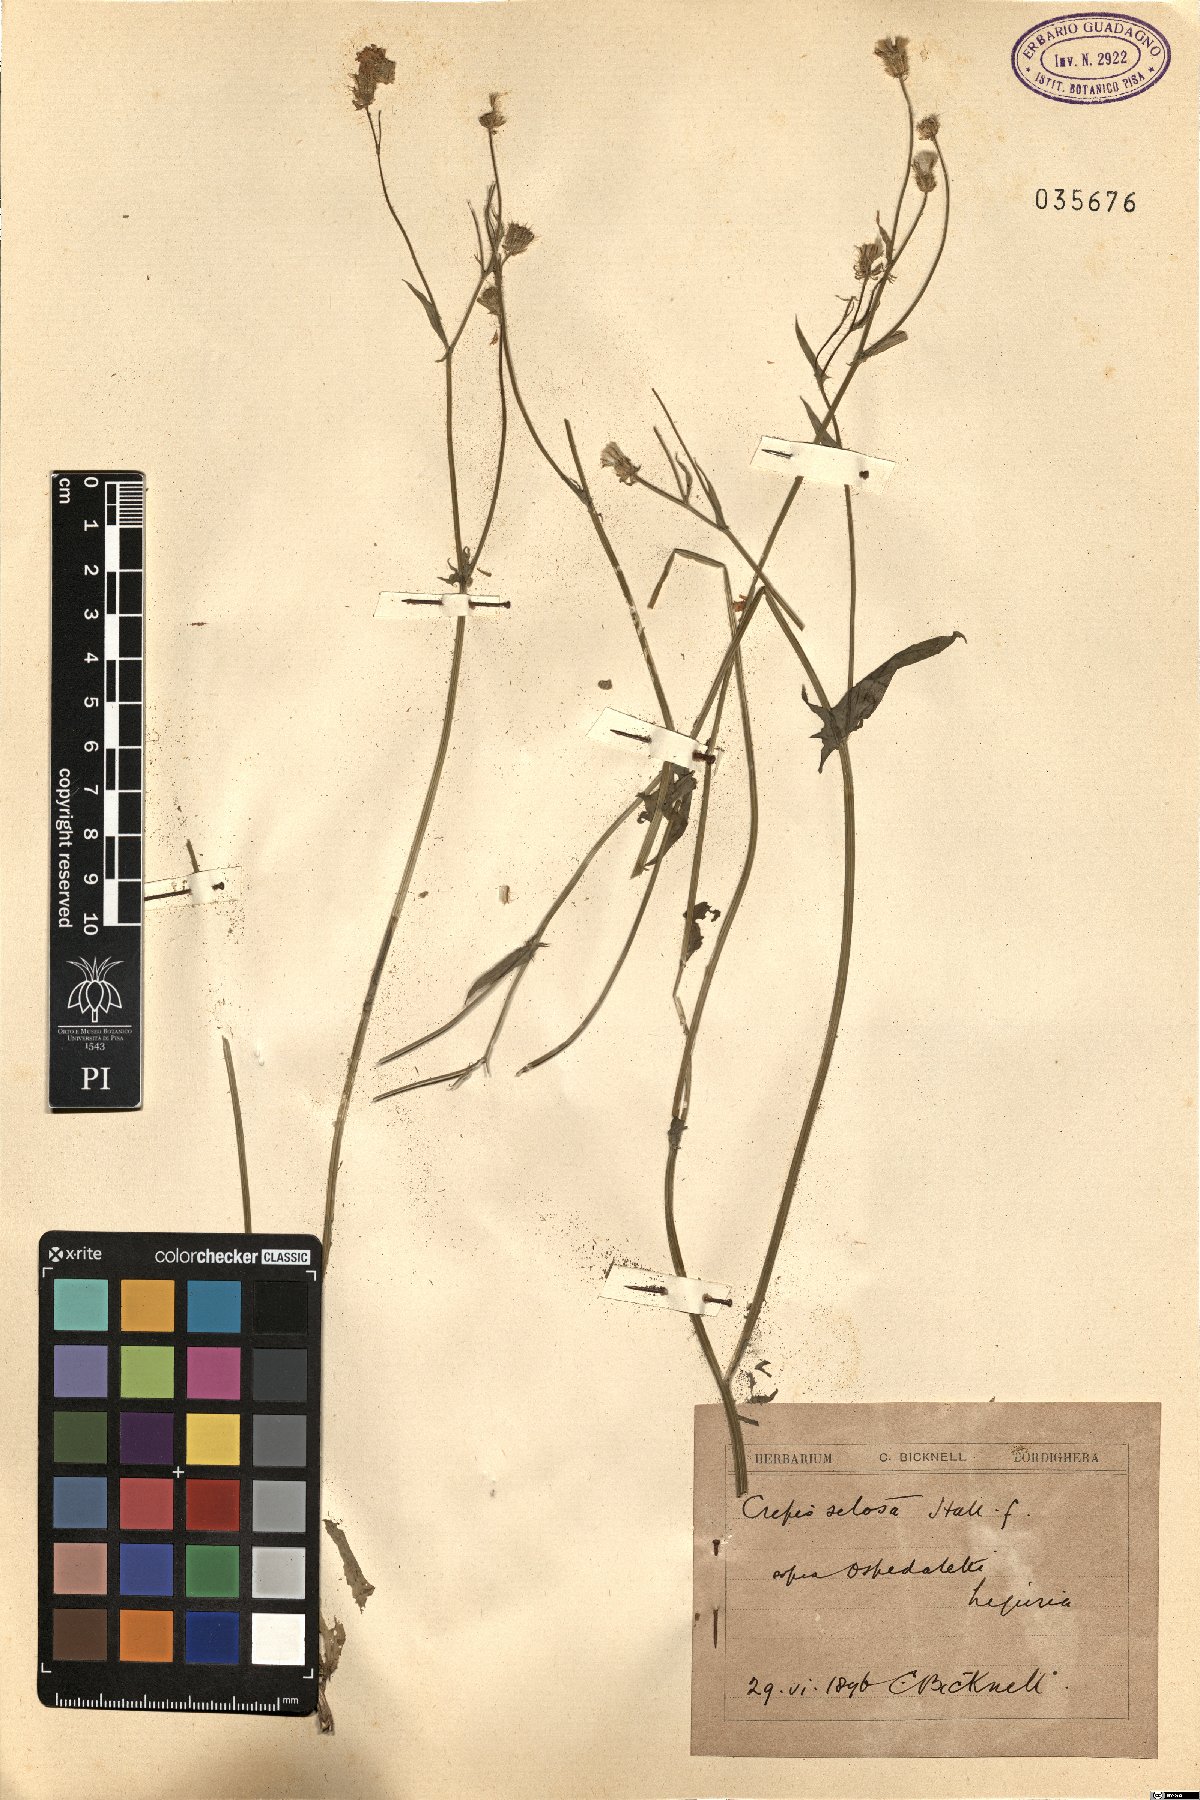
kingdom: Plantae
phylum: Tracheophyta
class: Magnoliopsida
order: Asterales
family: Asteraceae
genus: Crepis
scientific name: Crepis setosa
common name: Bristly hawk's-beard
